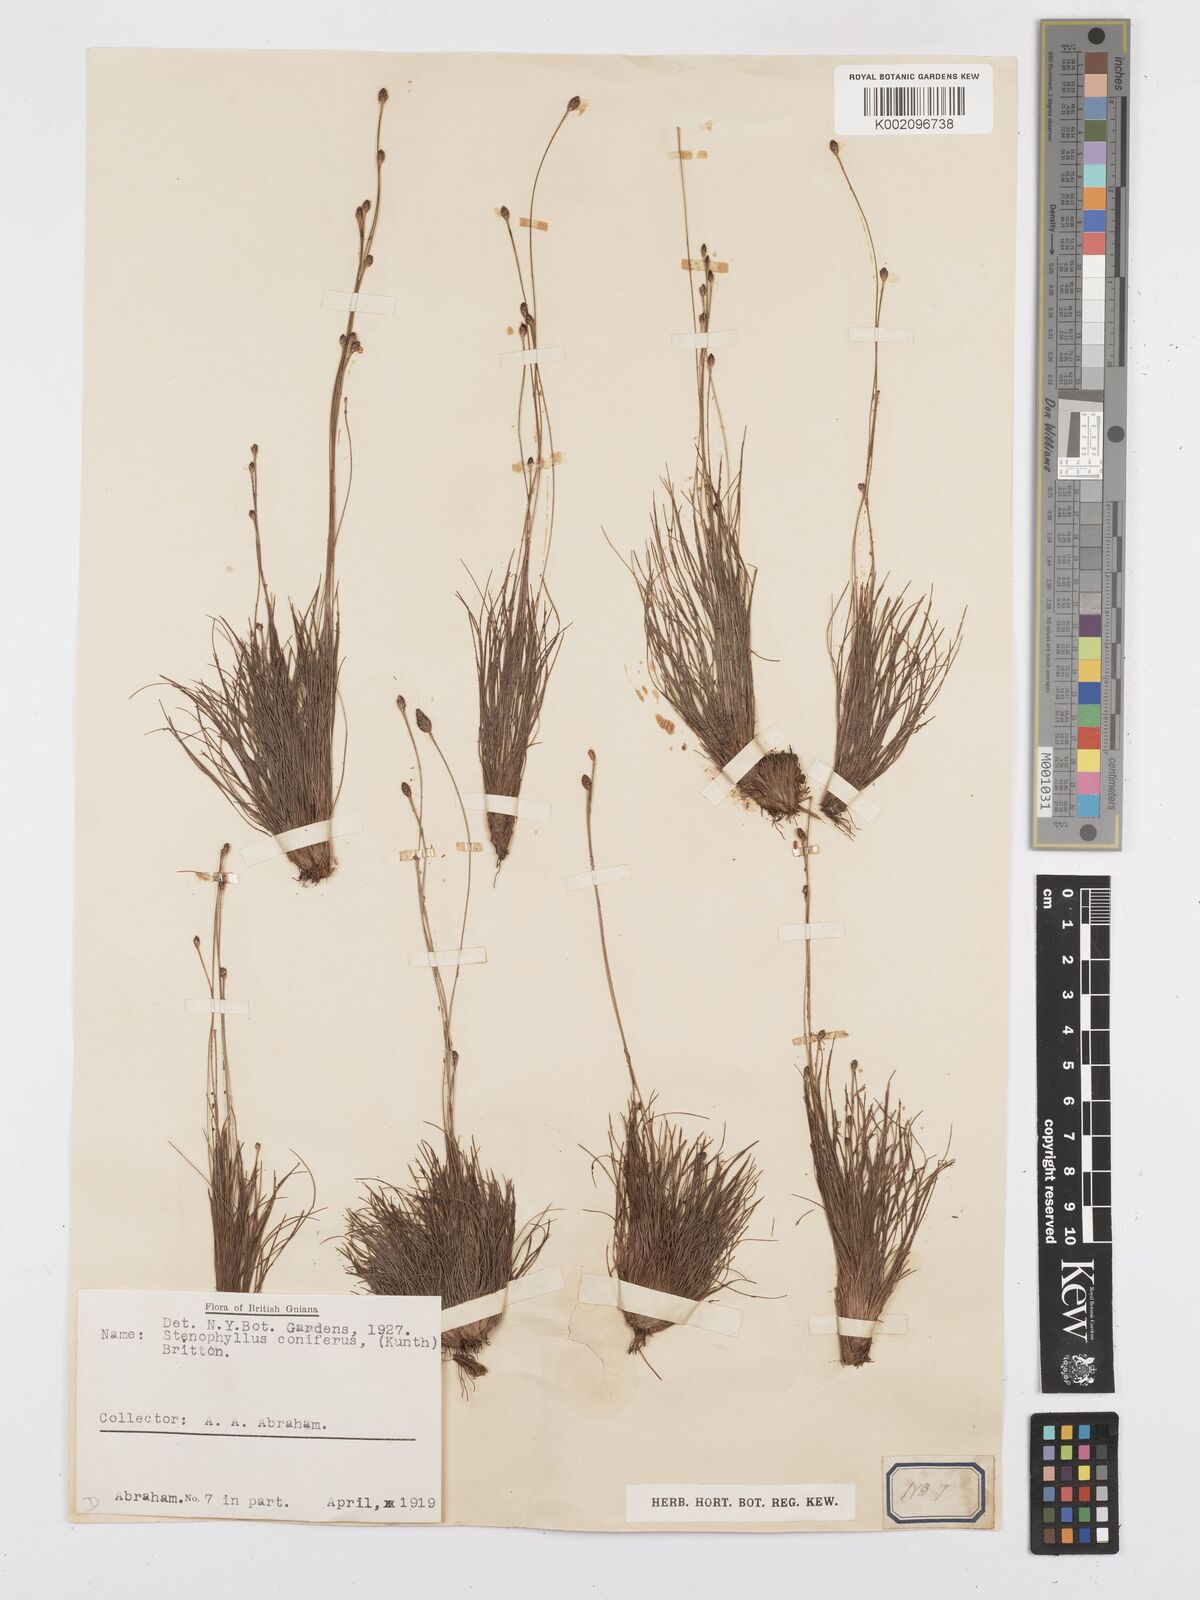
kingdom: Plantae
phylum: Tracheophyta
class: Liliopsida
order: Poales
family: Cyperaceae
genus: Bulbostylis
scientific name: Bulbostylis conifera
